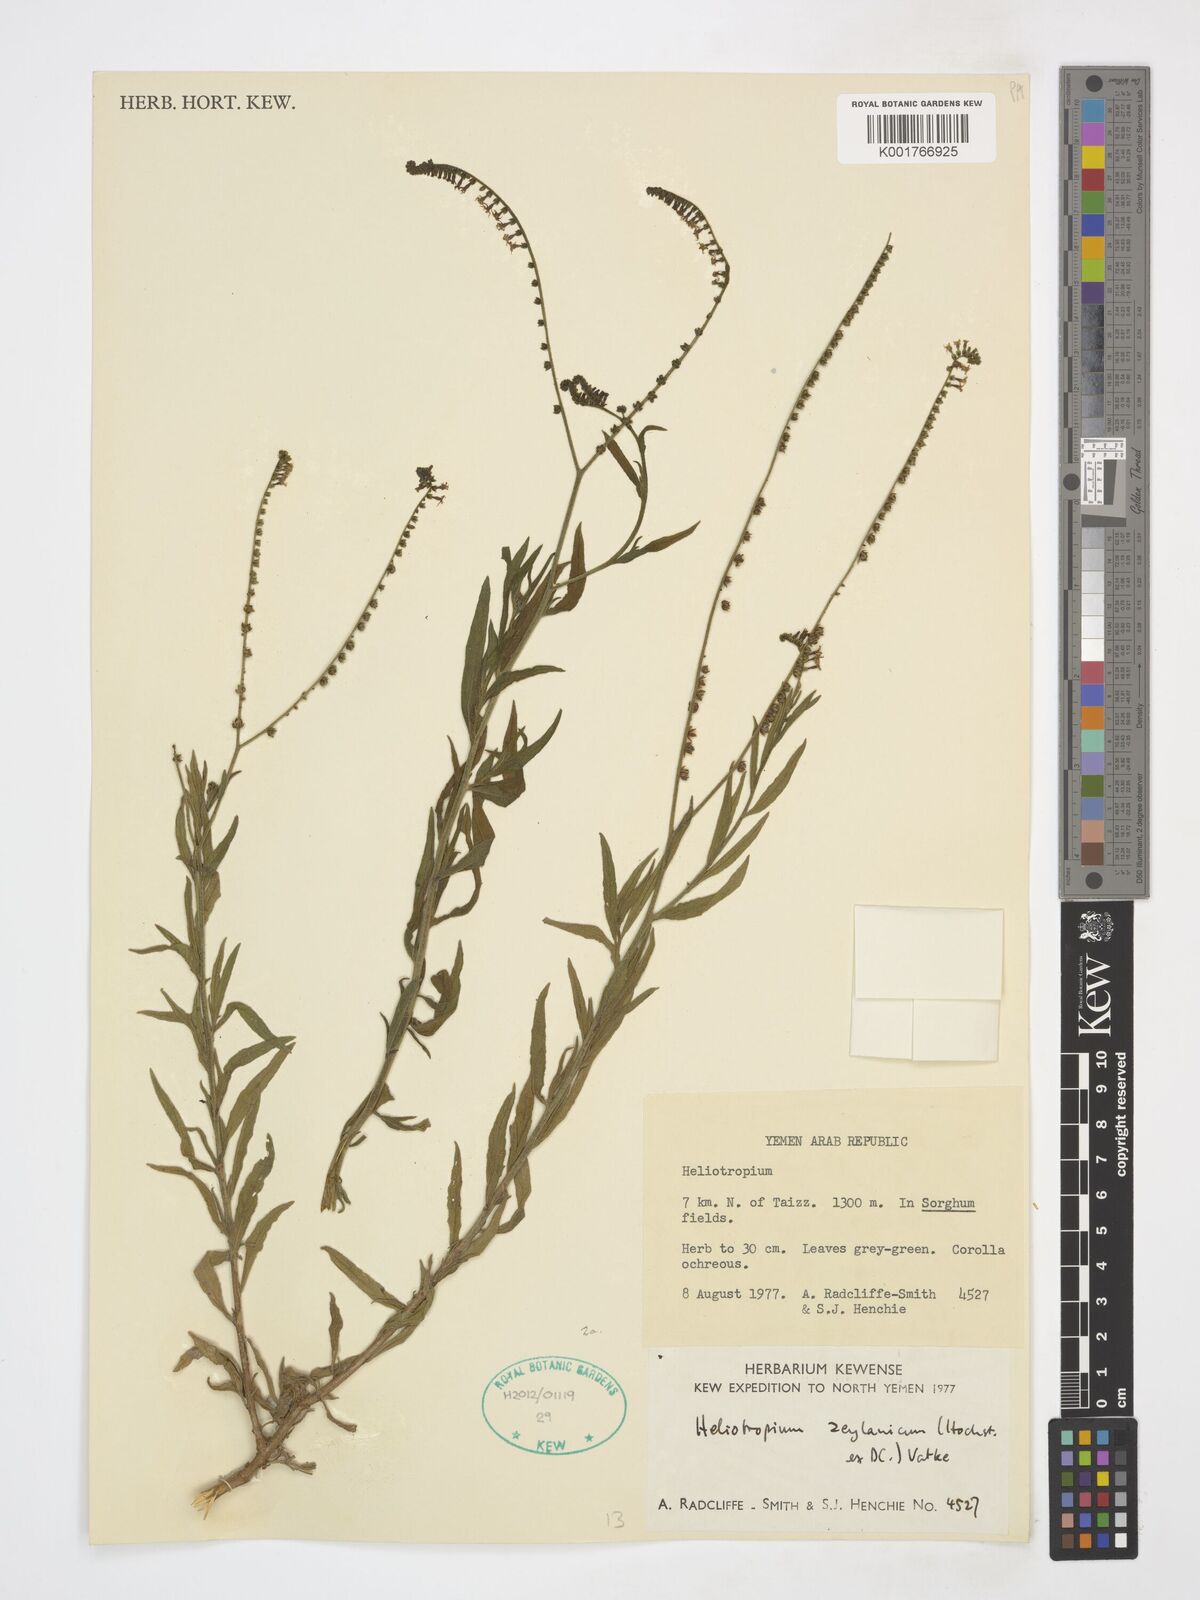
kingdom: Plantae
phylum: Tracheophyta
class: Magnoliopsida
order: Boraginales
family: Heliotropiaceae
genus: Euploca
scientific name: Euploca bracteata
